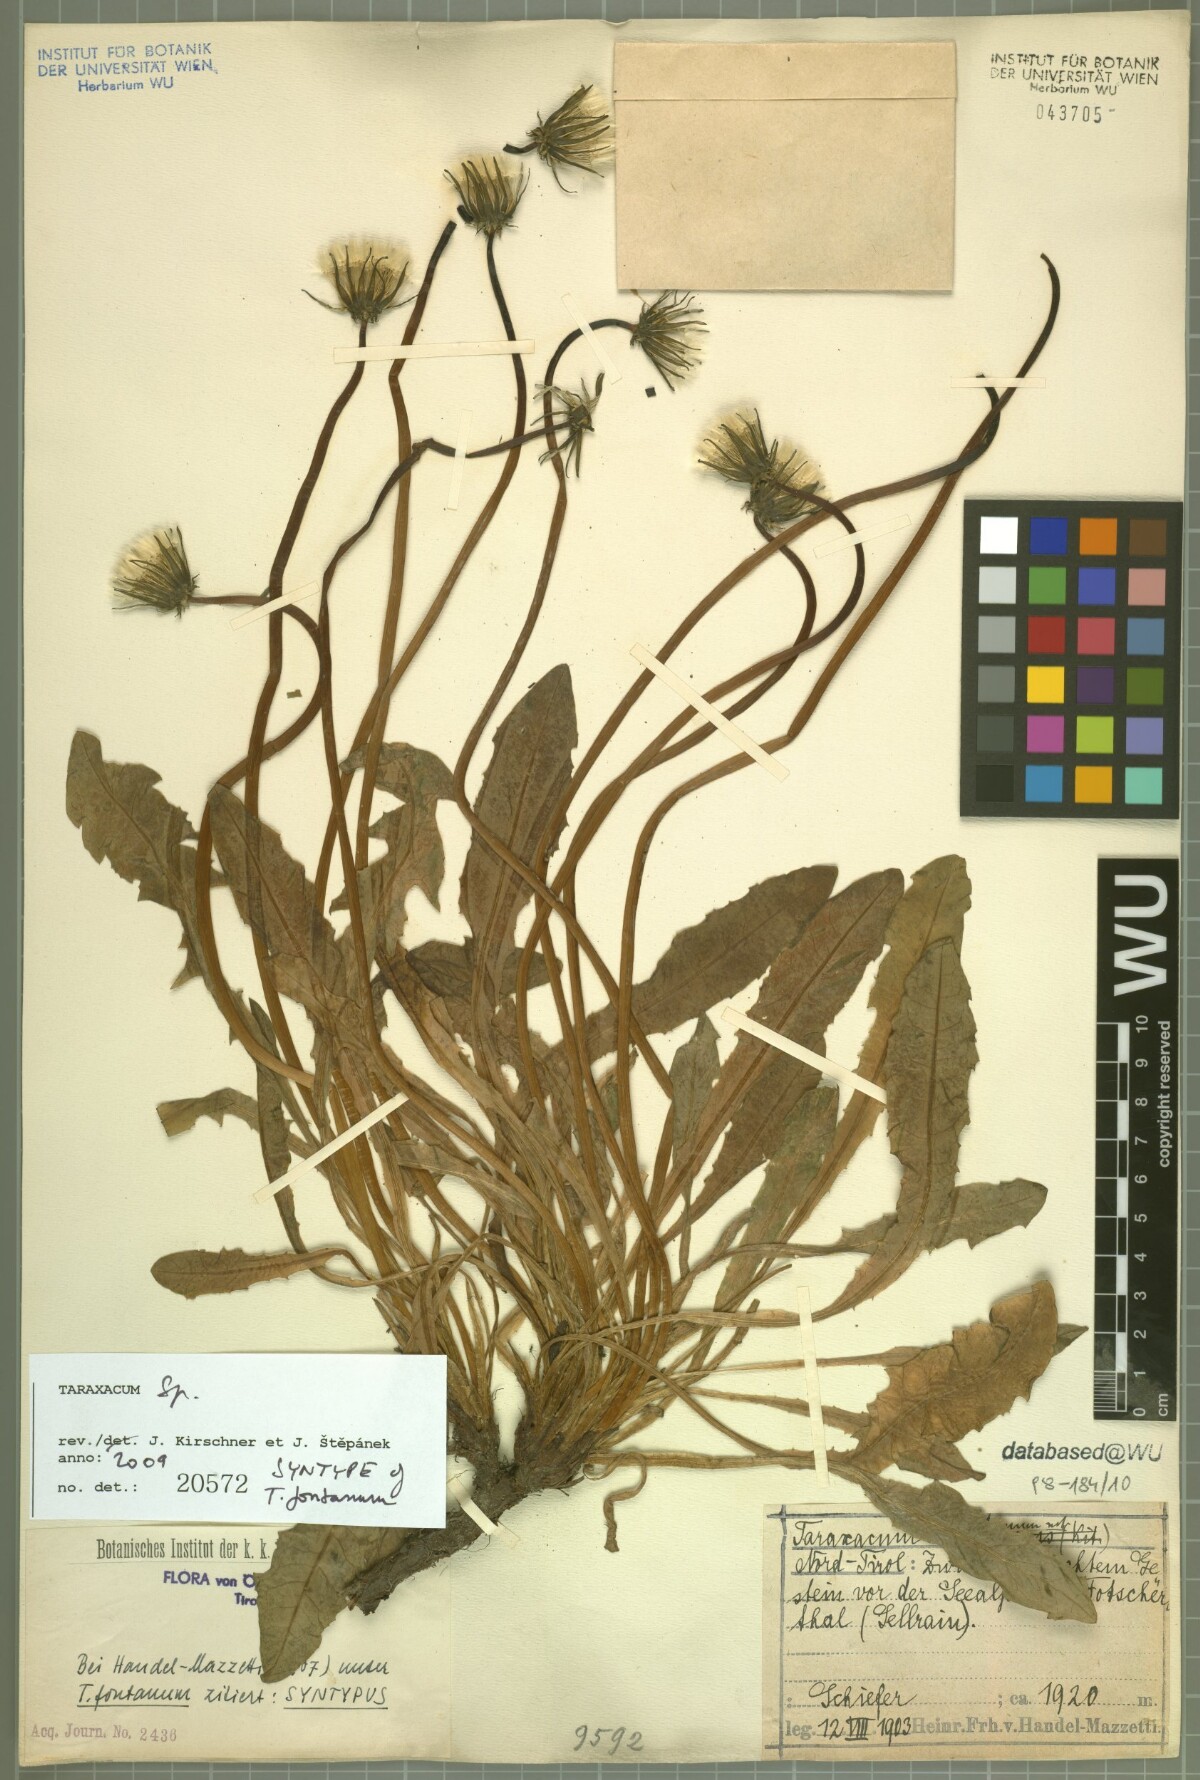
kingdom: Plantae
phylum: Tracheophyta
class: Magnoliopsida
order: Asterales
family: Asteraceae
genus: Taraxacum
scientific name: Taraxacum fontanum
